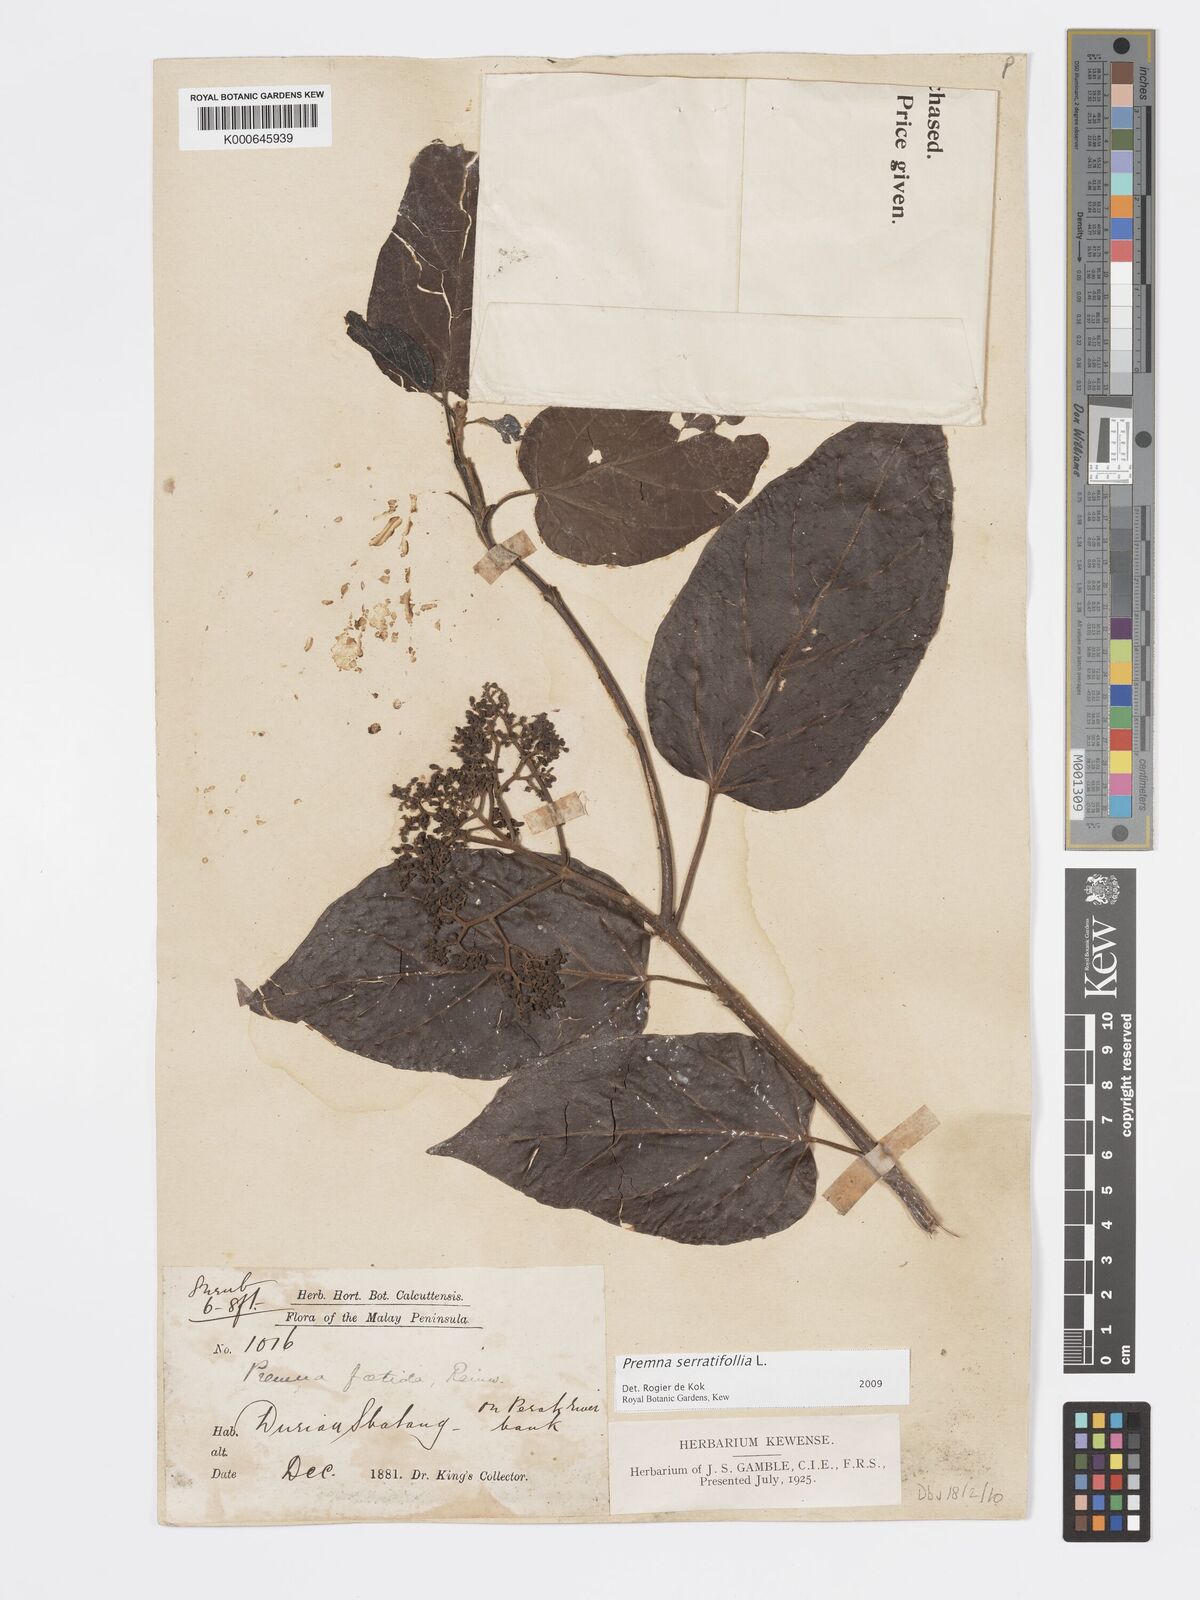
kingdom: Plantae
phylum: Tracheophyta
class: Magnoliopsida
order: Lamiales
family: Lamiaceae
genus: Premna
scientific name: Premna serratifolia
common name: Bastard guelder
